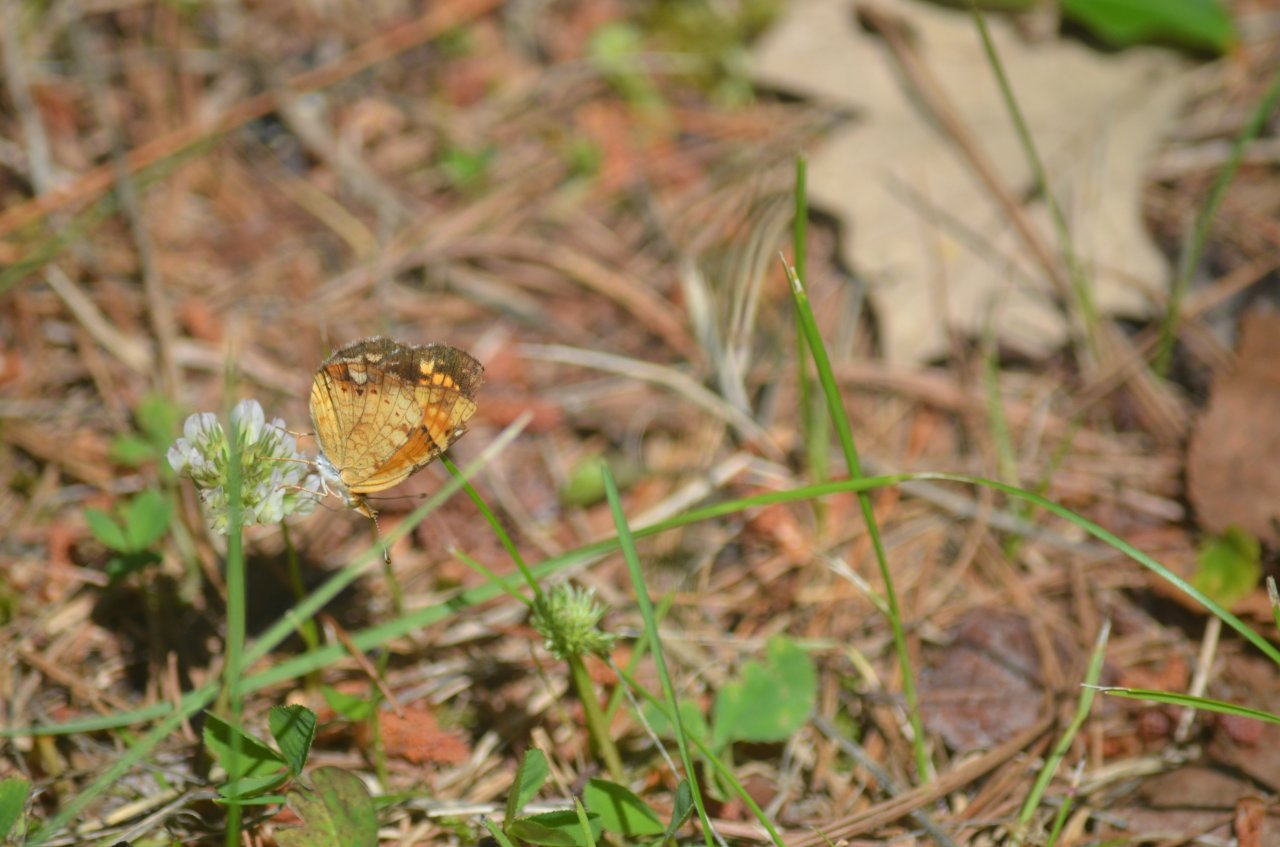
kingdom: Animalia
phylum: Arthropoda
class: Insecta
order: Lepidoptera
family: Nymphalidae
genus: Phyciodes
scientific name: Phyciodes tharos
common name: Northern Crescent
